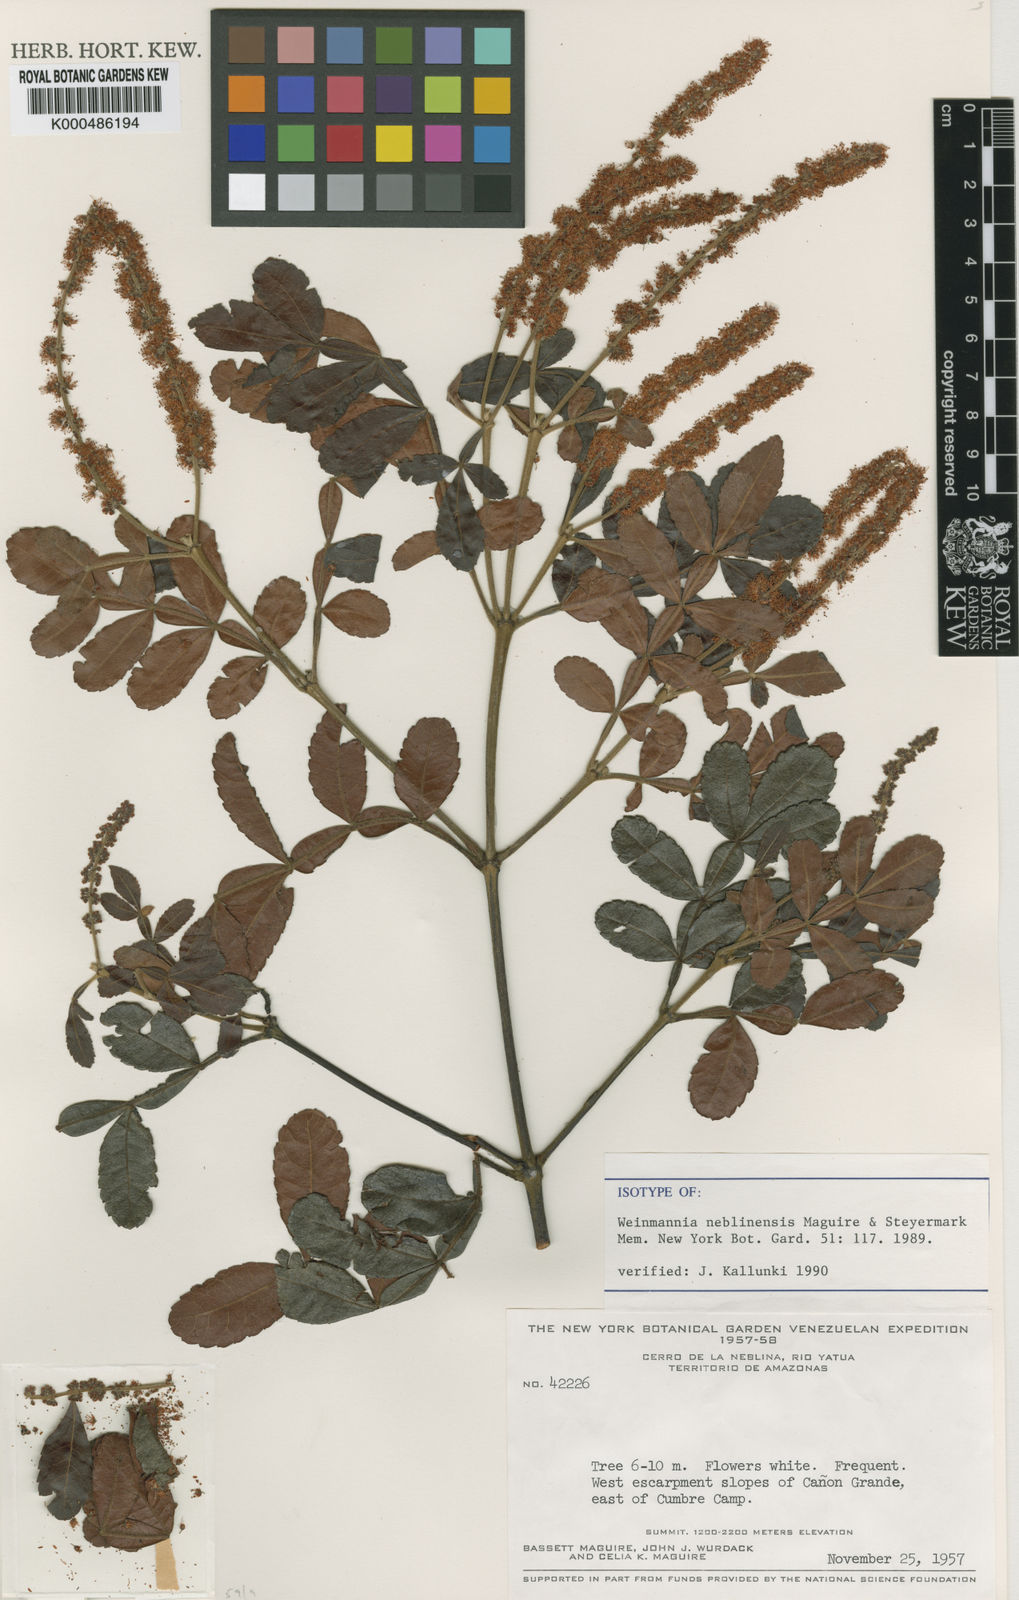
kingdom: Plantae
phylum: Tracheophyta
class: Magnoliopsida
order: Oxalidales
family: Cunoniaceae
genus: Weinmannia
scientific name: Weinmannia pubescens
